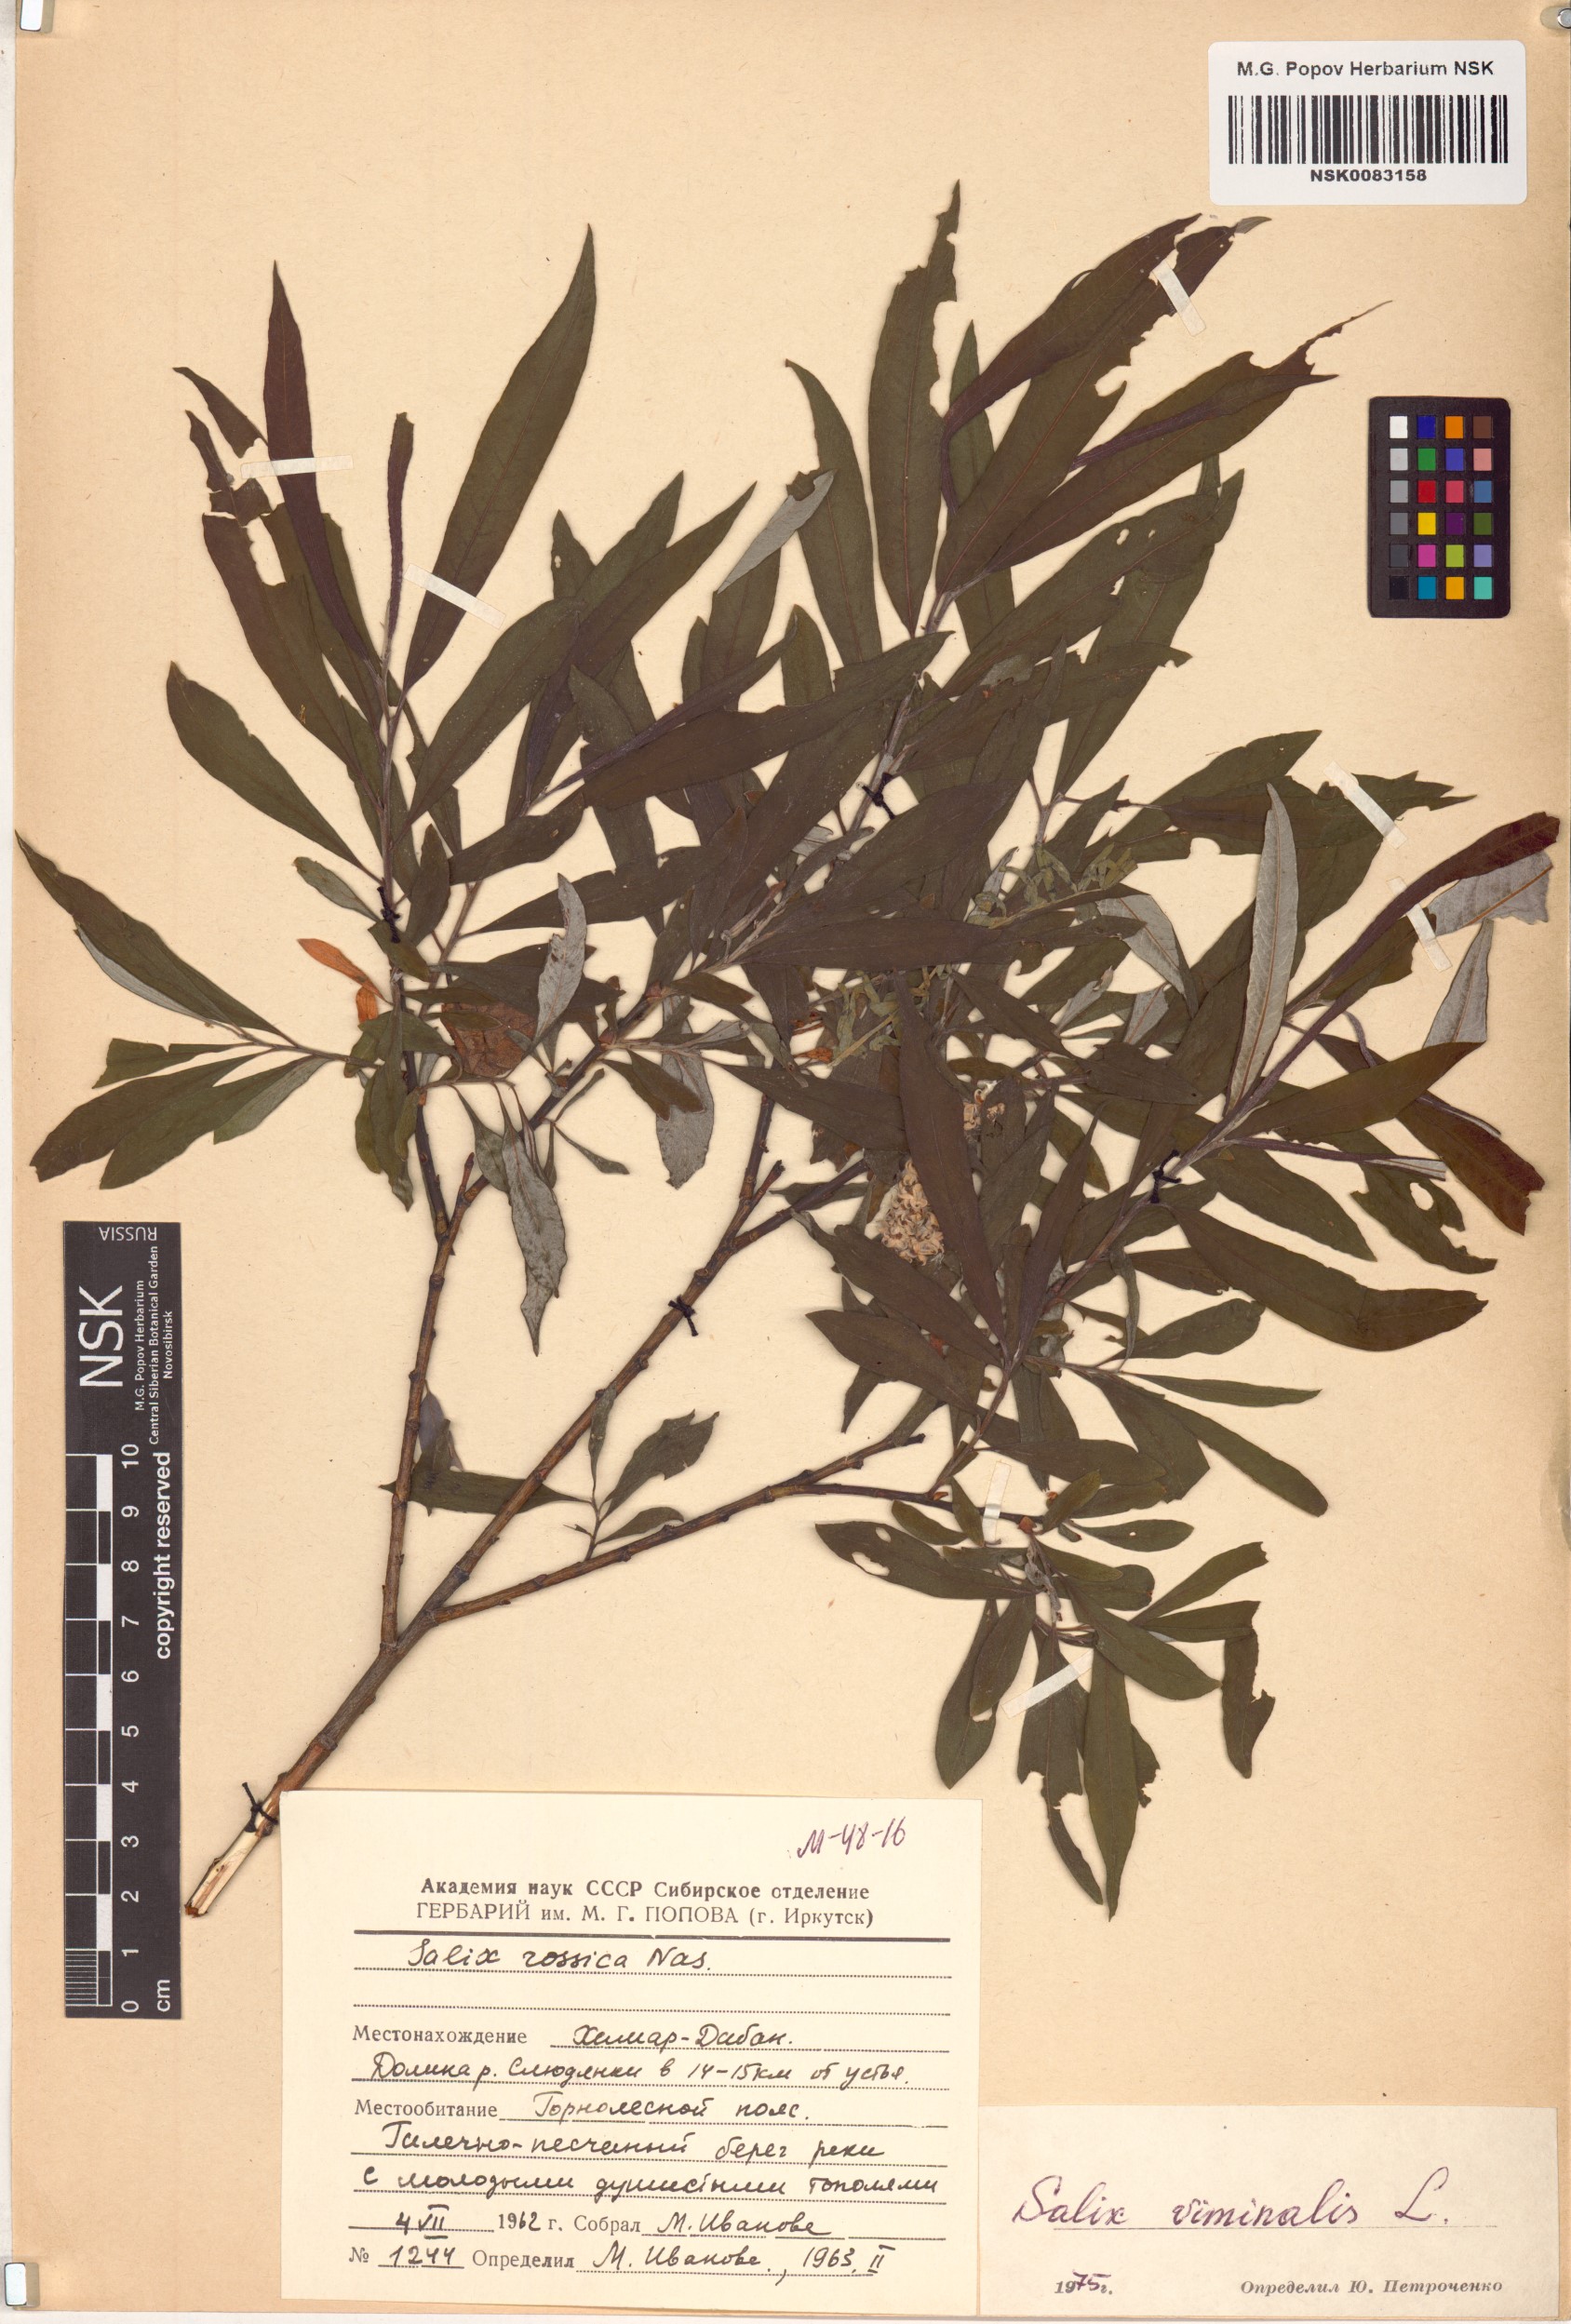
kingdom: Plantae
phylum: Tracheophyta
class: Magnoliopsida
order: Malpighiales
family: Salicaceae
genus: Salix
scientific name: Salix viminalis
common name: Osier
